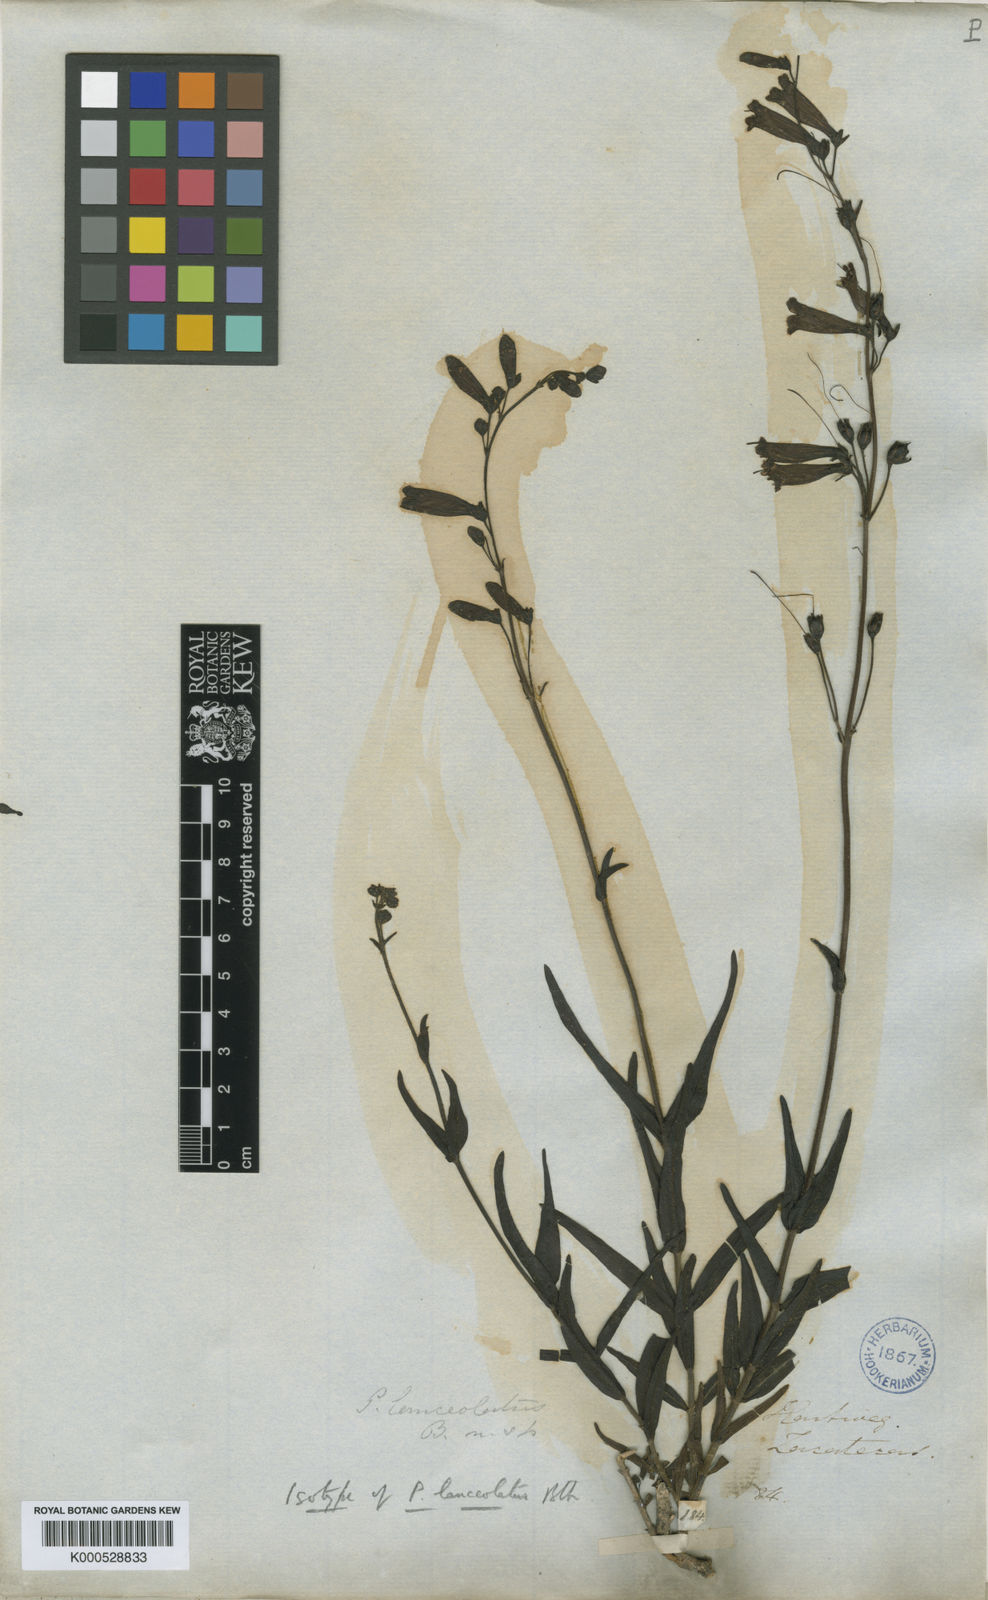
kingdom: Plantae
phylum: Tracheophyta
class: Magnoliopsida
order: Lamiales
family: Plantaginaceae
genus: Penstemon
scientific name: Penstemon lanceolatus
